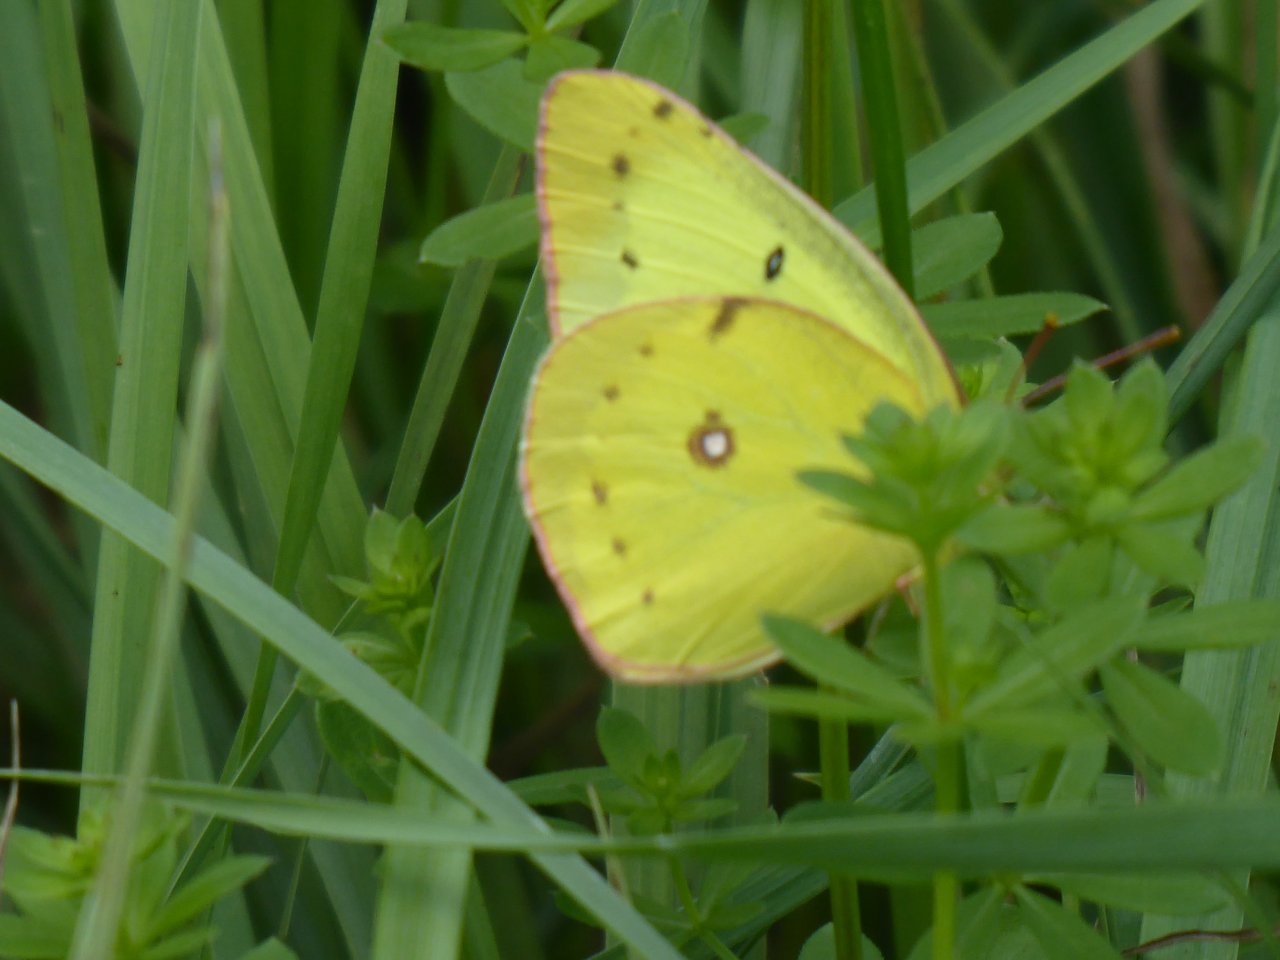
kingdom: Animalia
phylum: Arthropoda
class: Insecta
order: Lepidoptera
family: Pieridae
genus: Colias
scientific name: Colias philodice
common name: Clouded Sulphur
